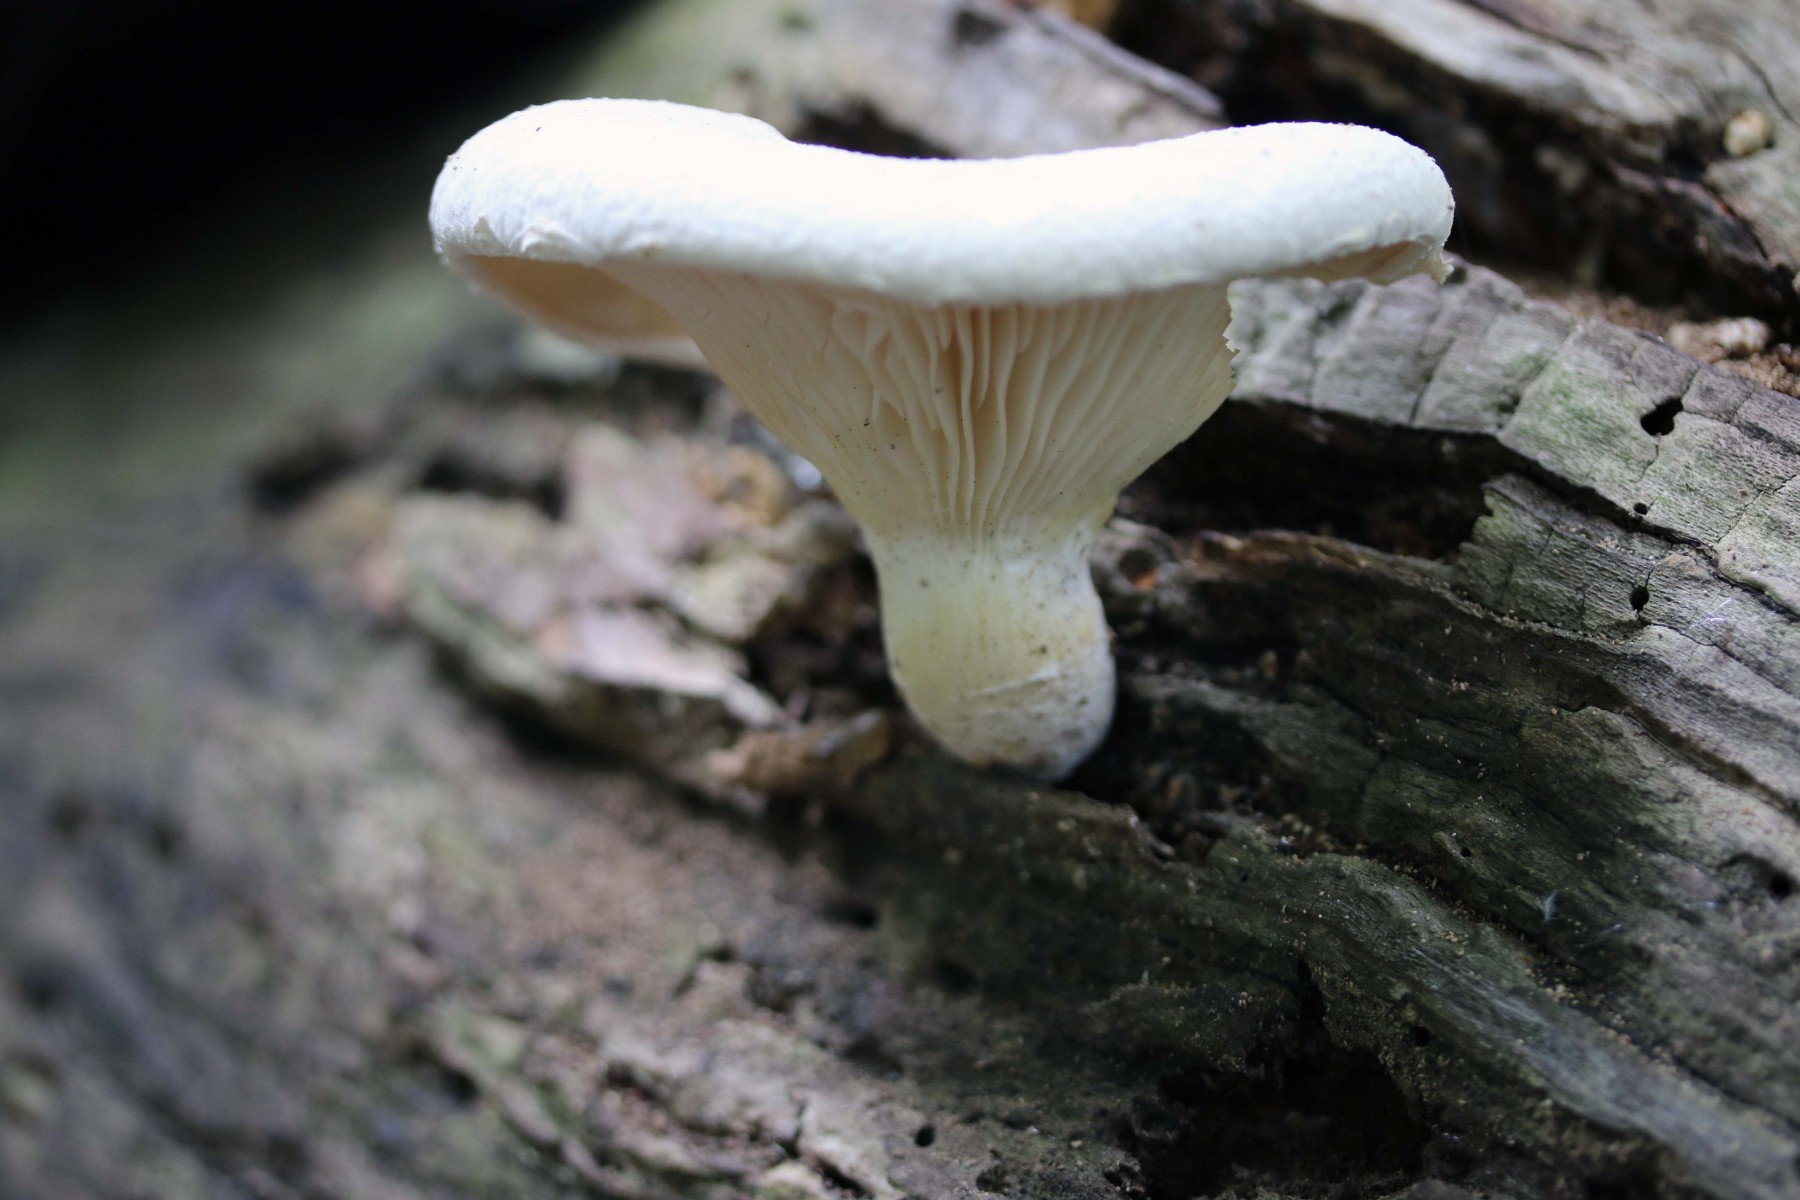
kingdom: Fungi
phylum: Basidiomycota
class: Agaricomycetes
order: Agaricales
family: Pleurotaceae
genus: Pleurotus
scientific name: Pleurotus dryinus
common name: korkagtig østershat
